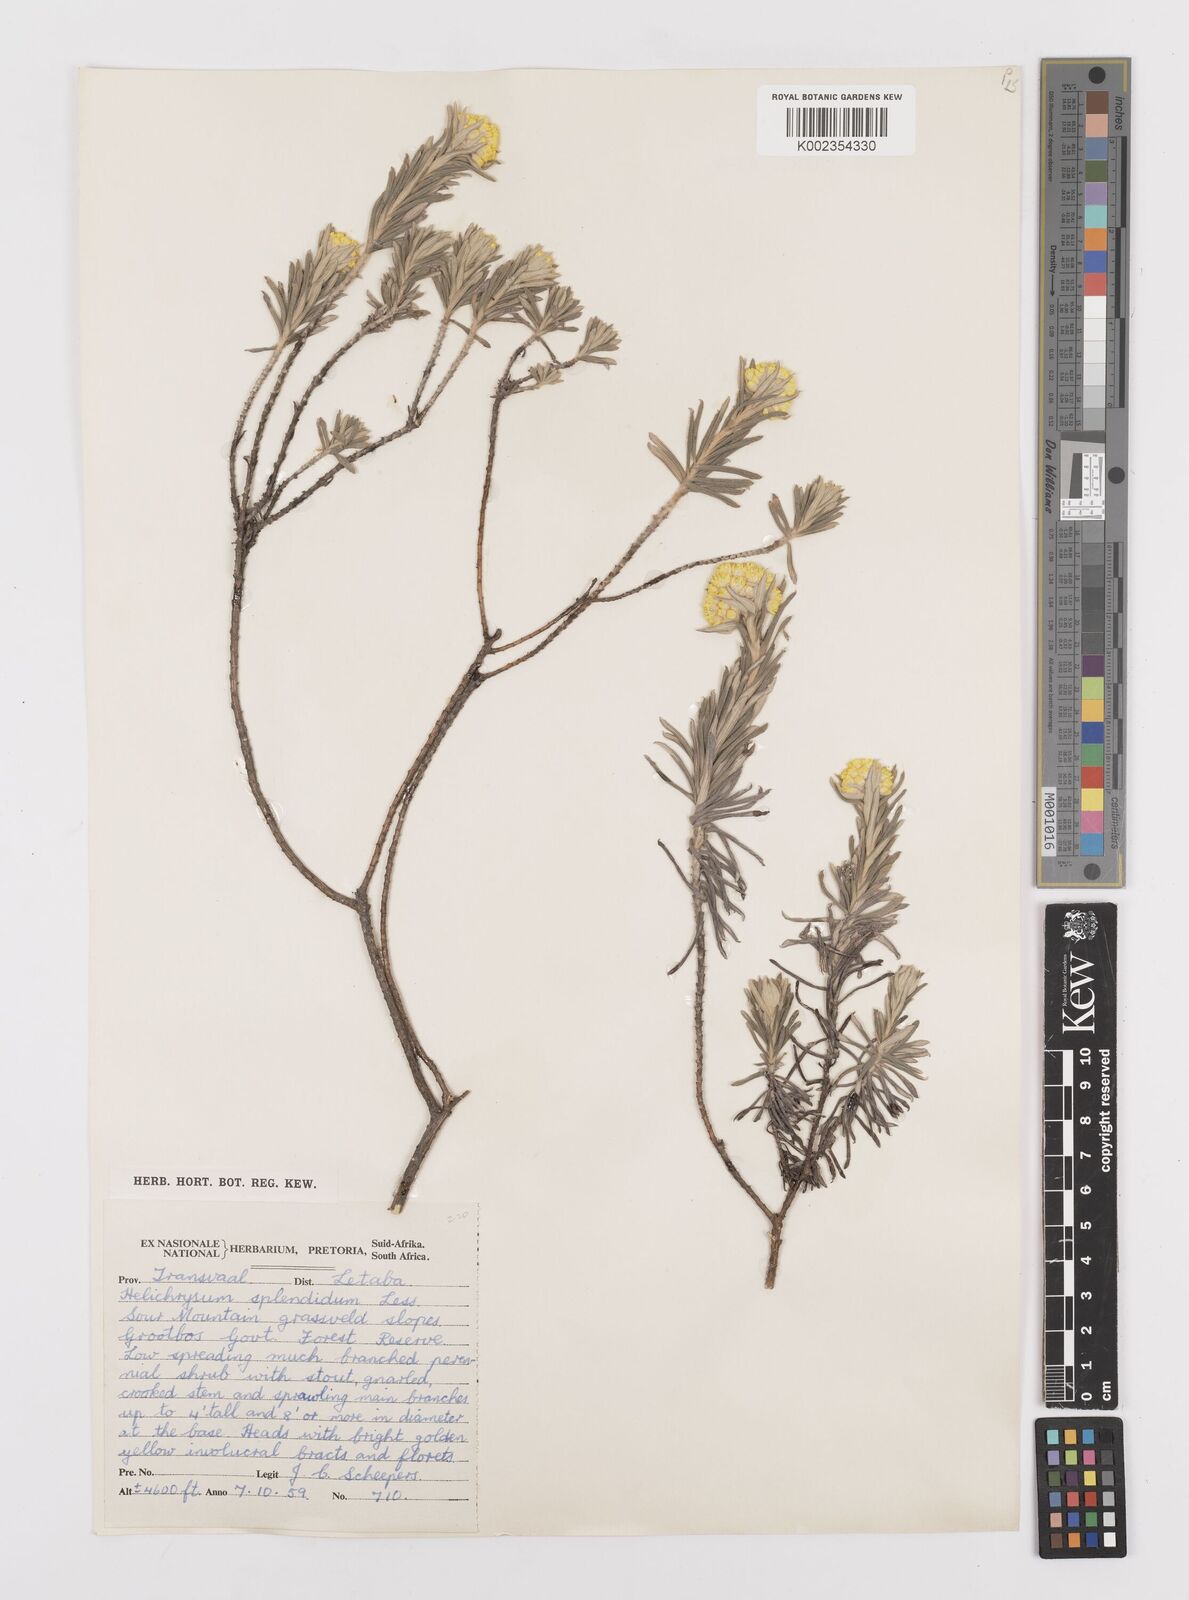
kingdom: Plantae
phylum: Tracheophyta
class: Magnoliopsida
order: Asterales
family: Asteraceae
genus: Helichrysum
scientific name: Helichrysum splendidum
